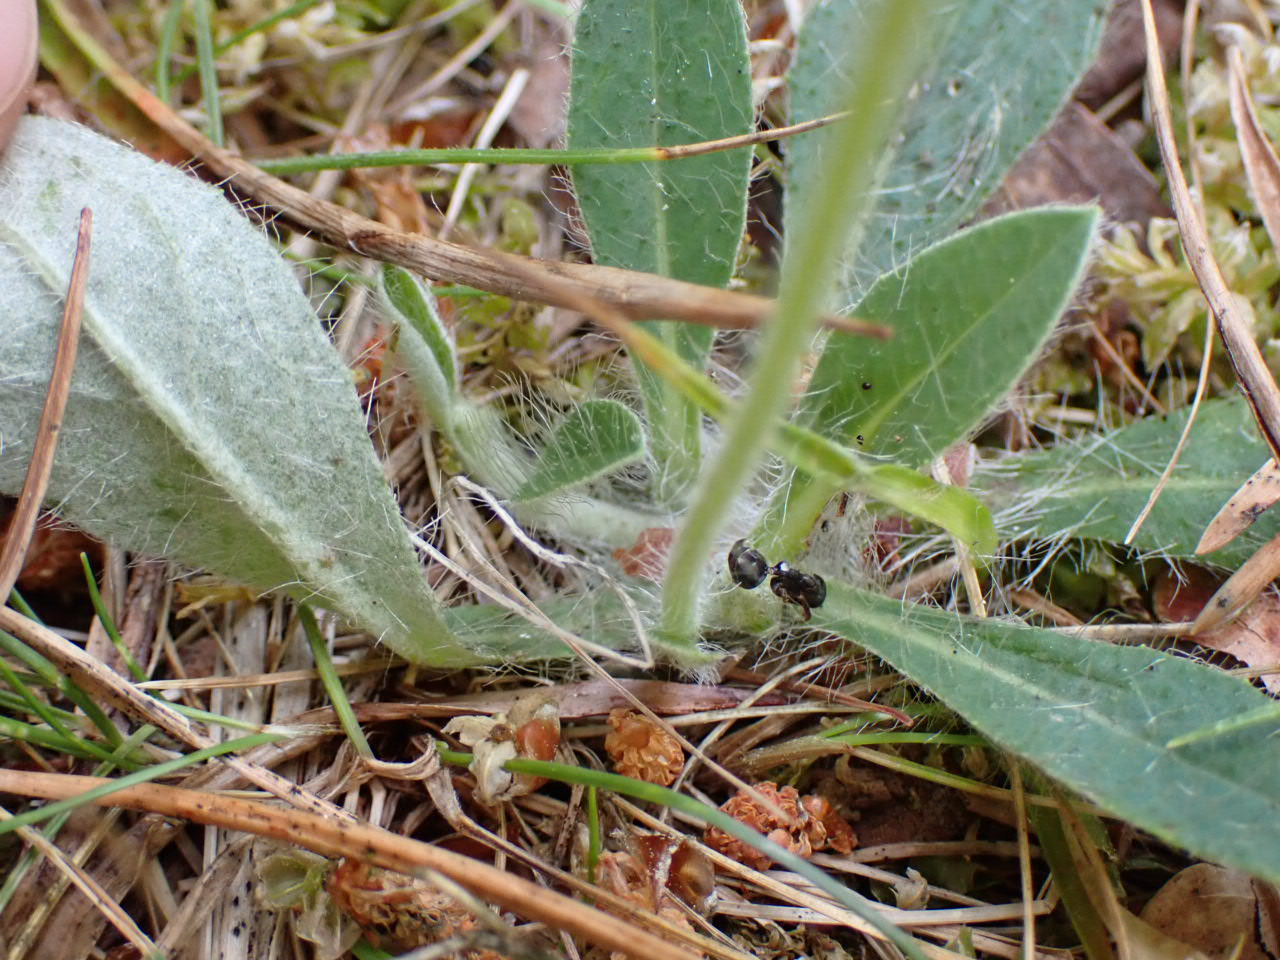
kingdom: Plantae
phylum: Tracheophyta
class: Magnoliopsida
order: Asterales
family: Asteraceae
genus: Pilosella
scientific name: Pilosella officinarum
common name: Håret høgeurt
